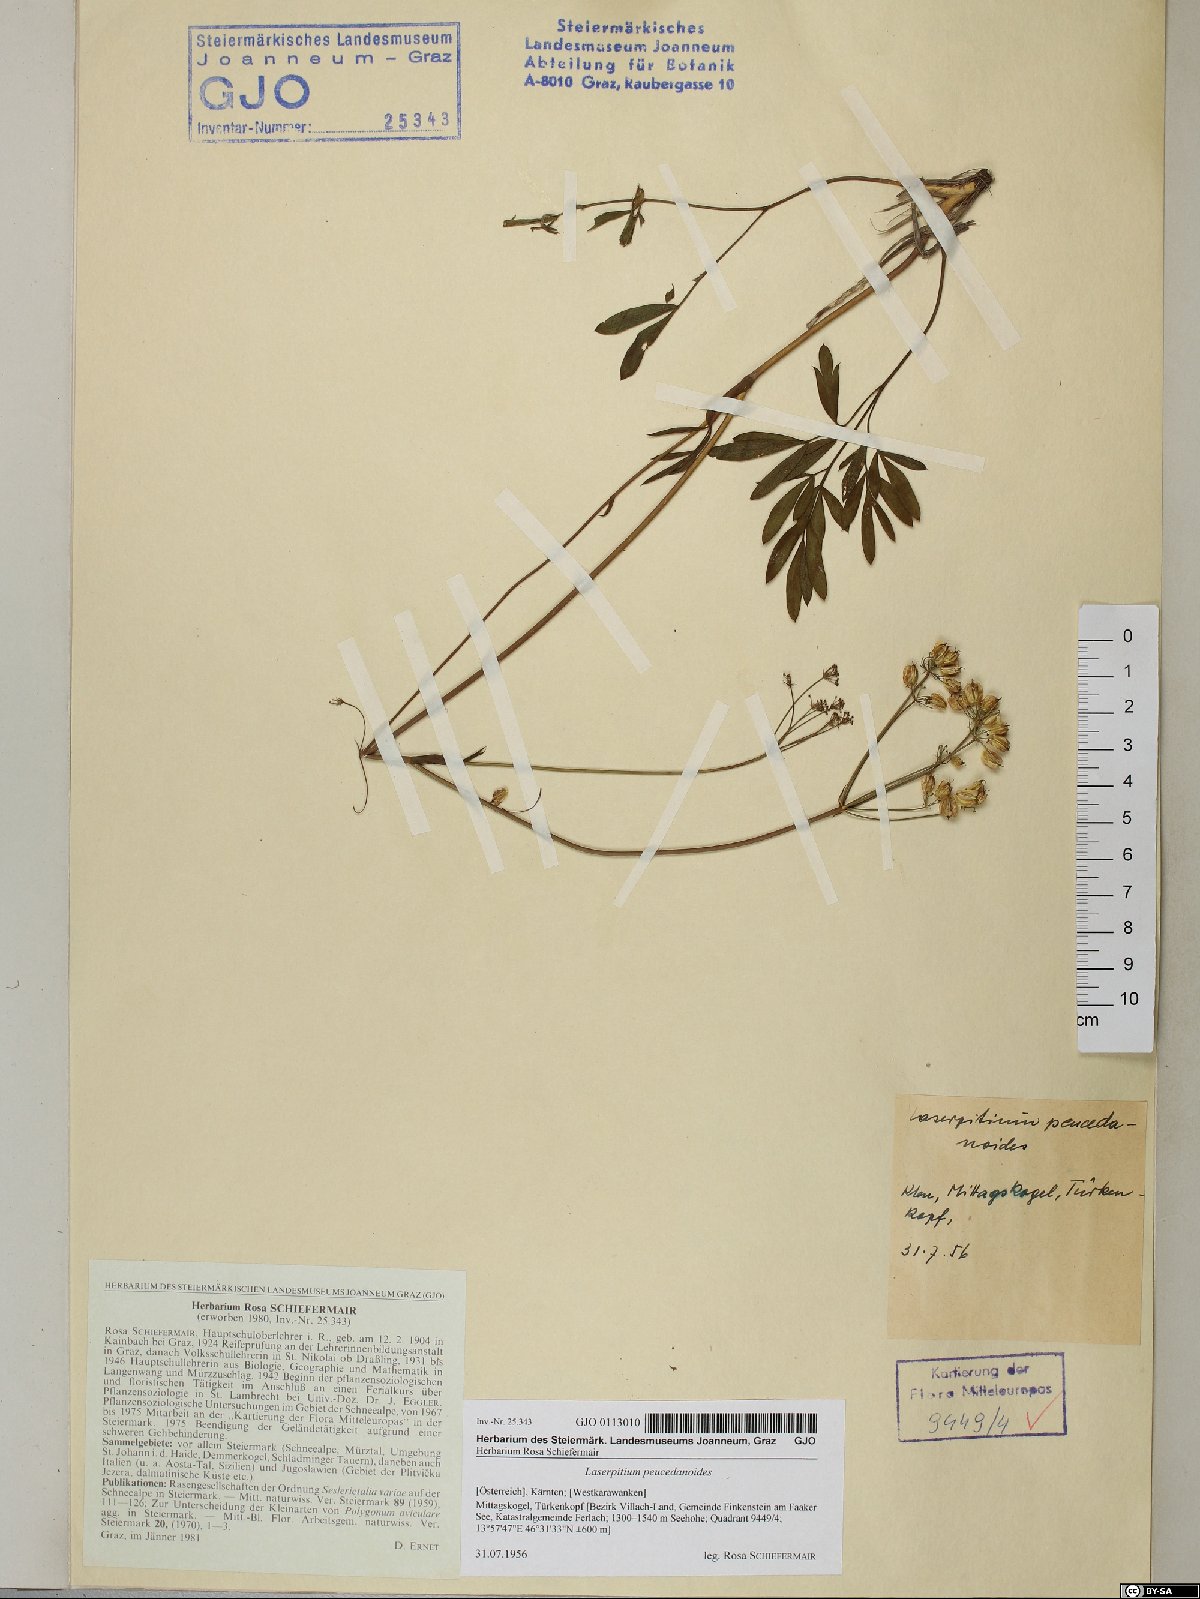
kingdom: Plantae
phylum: Tracheophyta
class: Magnoliopsida
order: Apiales
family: Apiaceae
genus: Laserpitium
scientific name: Laserpitium peucedanoides
